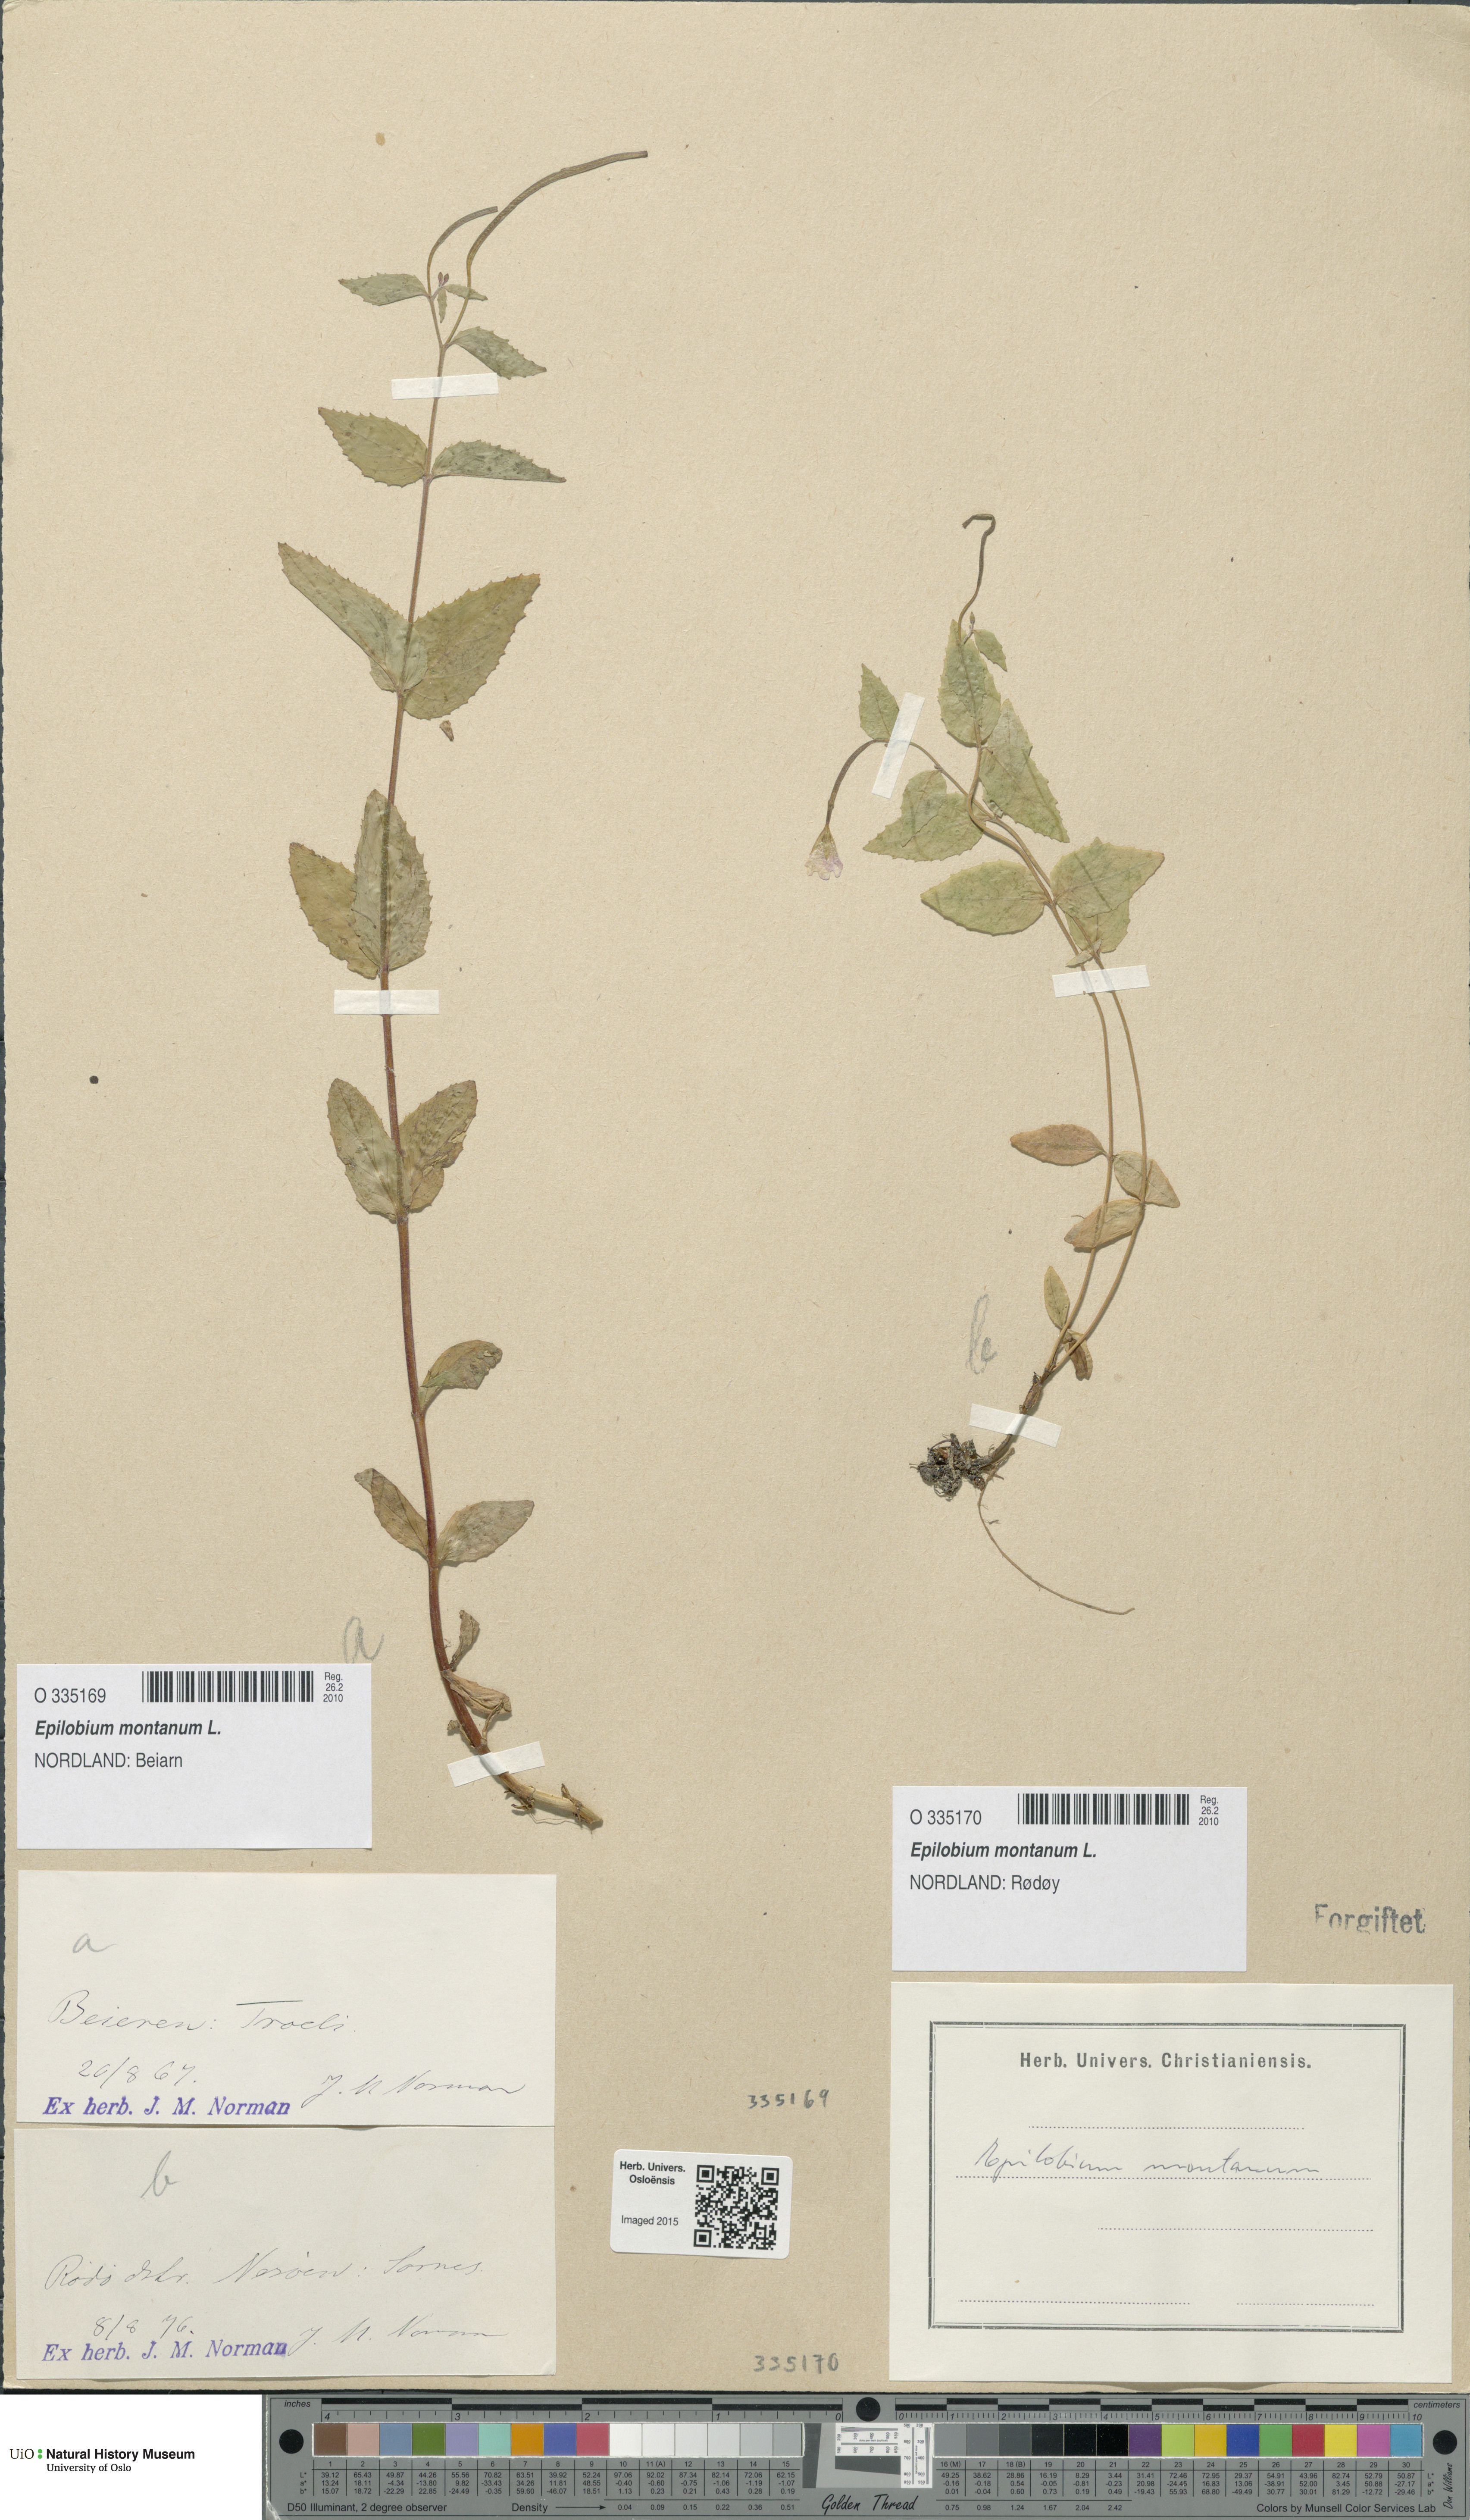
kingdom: Plantae
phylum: Tracheophyta
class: Magnoliopsida
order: Myrtales
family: Onagraceae
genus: Epilobium
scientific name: Epilobium montanum
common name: Broad-leaved willowherb
